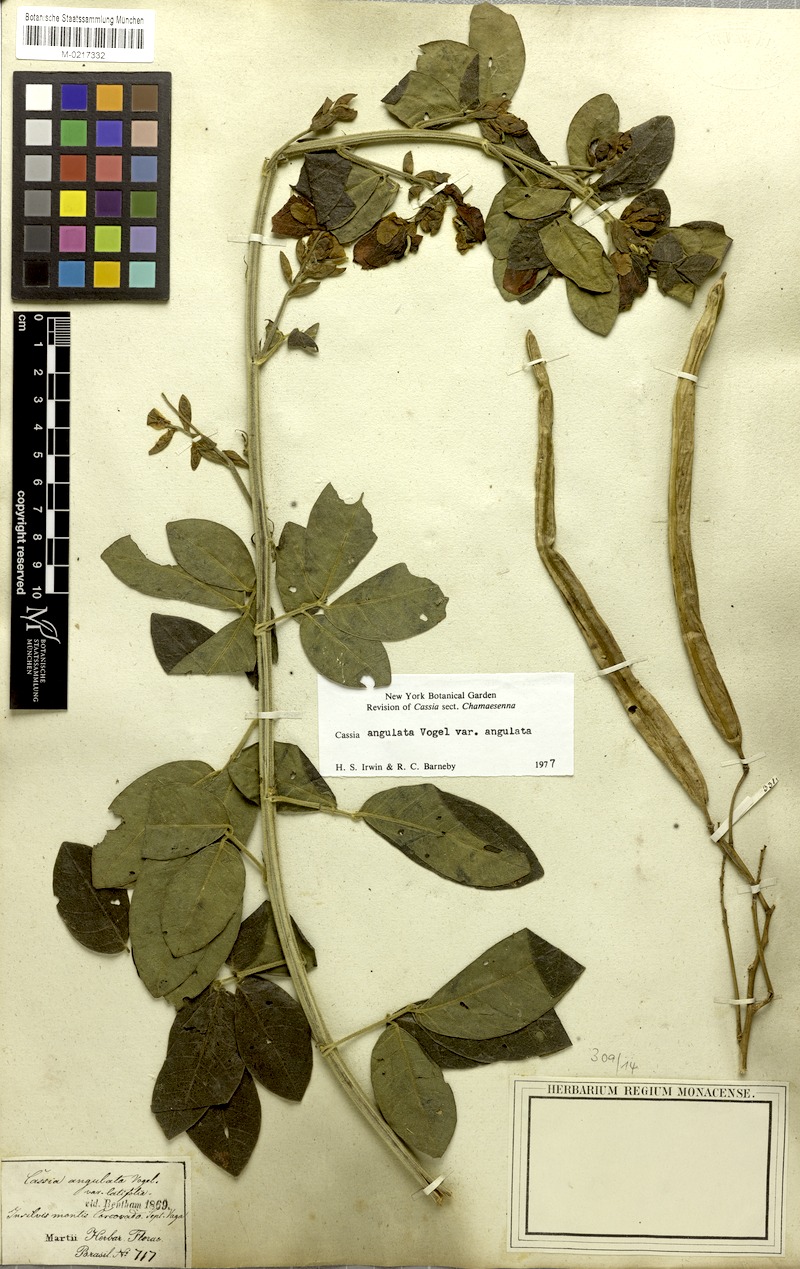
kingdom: Plantae
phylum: Tracheophyta
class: Magnoliopsida
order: Fabales
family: Fabaceae
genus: Senna
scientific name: Senna angulata
